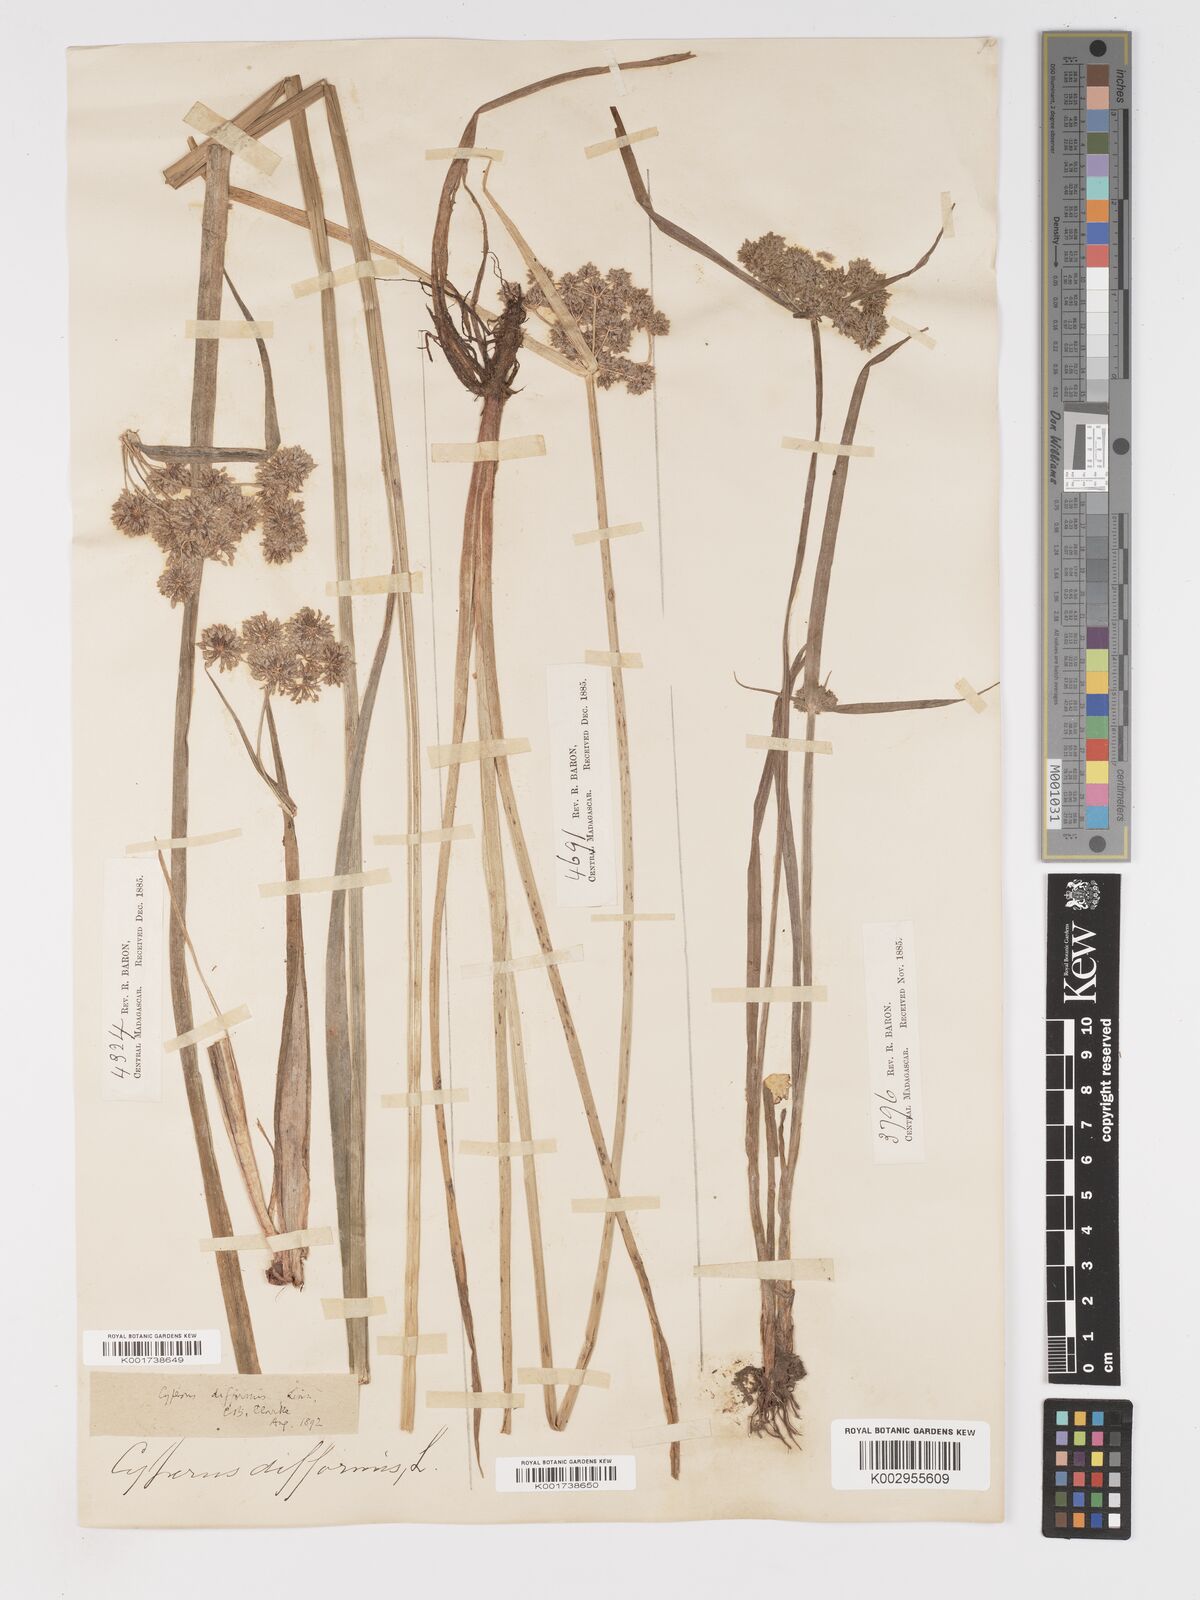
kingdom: Plantae
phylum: Tracheophyta
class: Liliopsida
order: Poales
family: Cyperaceae
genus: Cyperus
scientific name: Cyperus difformis
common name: Variable flatsedge
